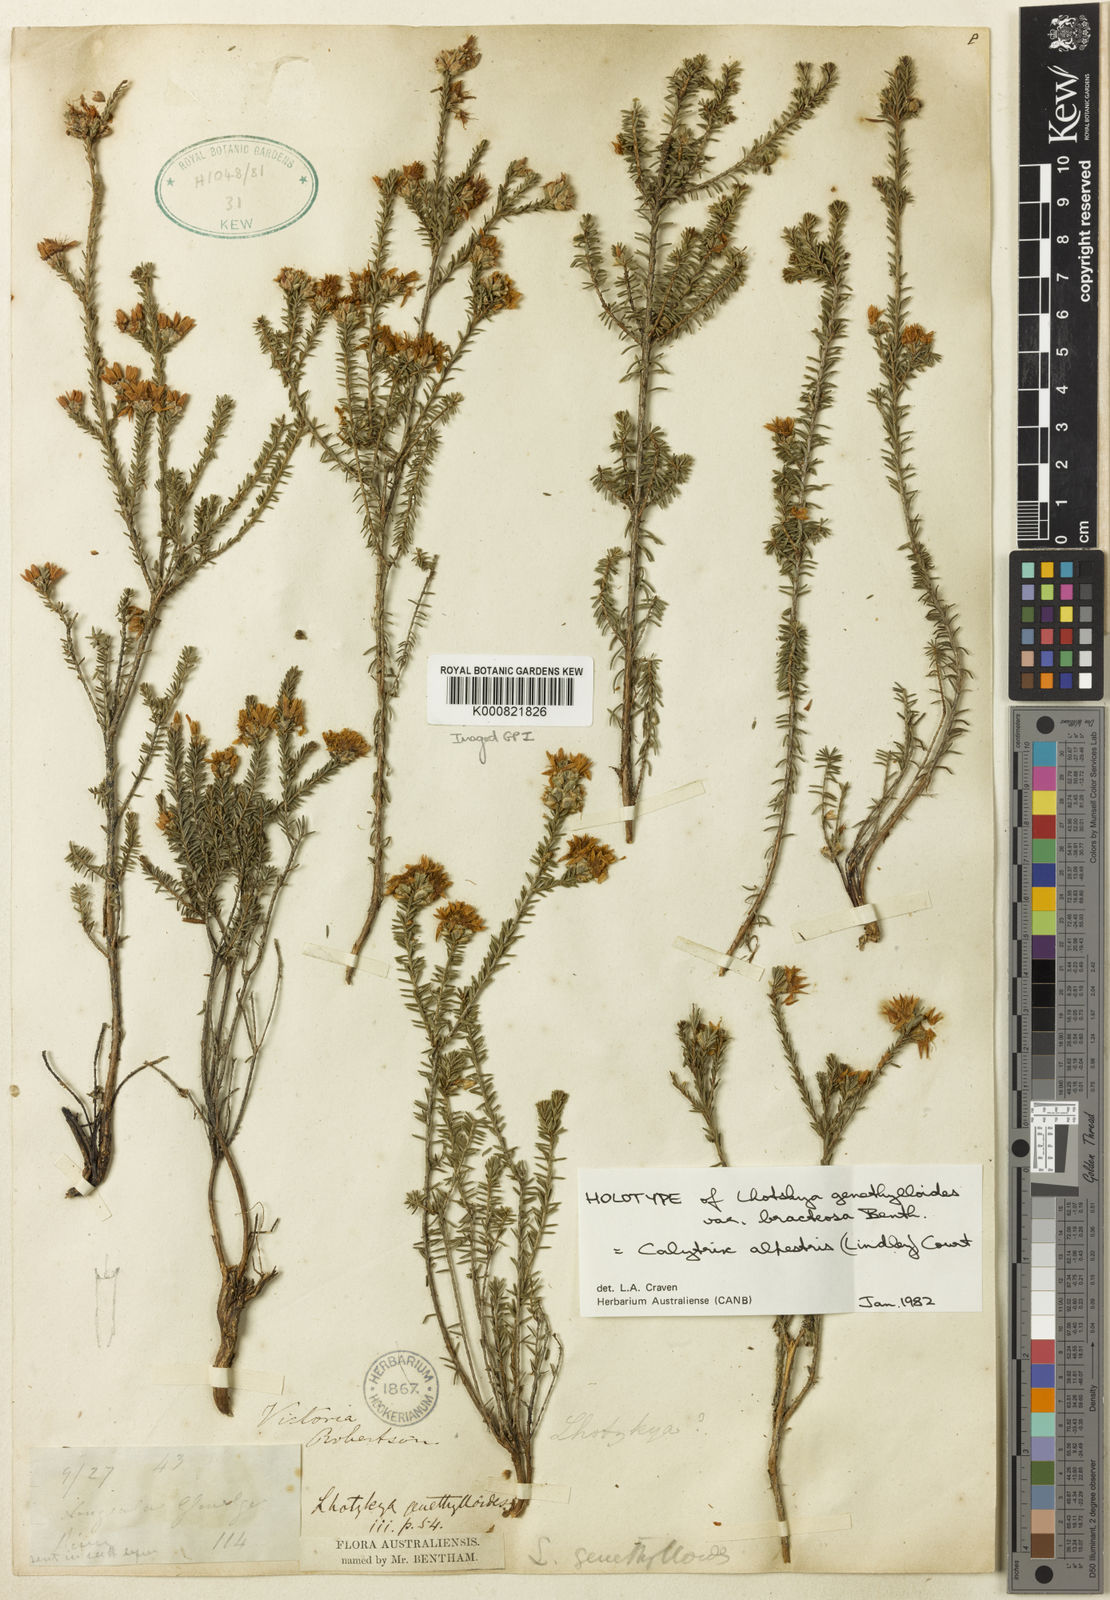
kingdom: Plantae
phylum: Tracheophyta
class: Magnoliopsida
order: Myrtales
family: Myrtaceae
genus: Calytrix
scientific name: Calytrix alpestris
